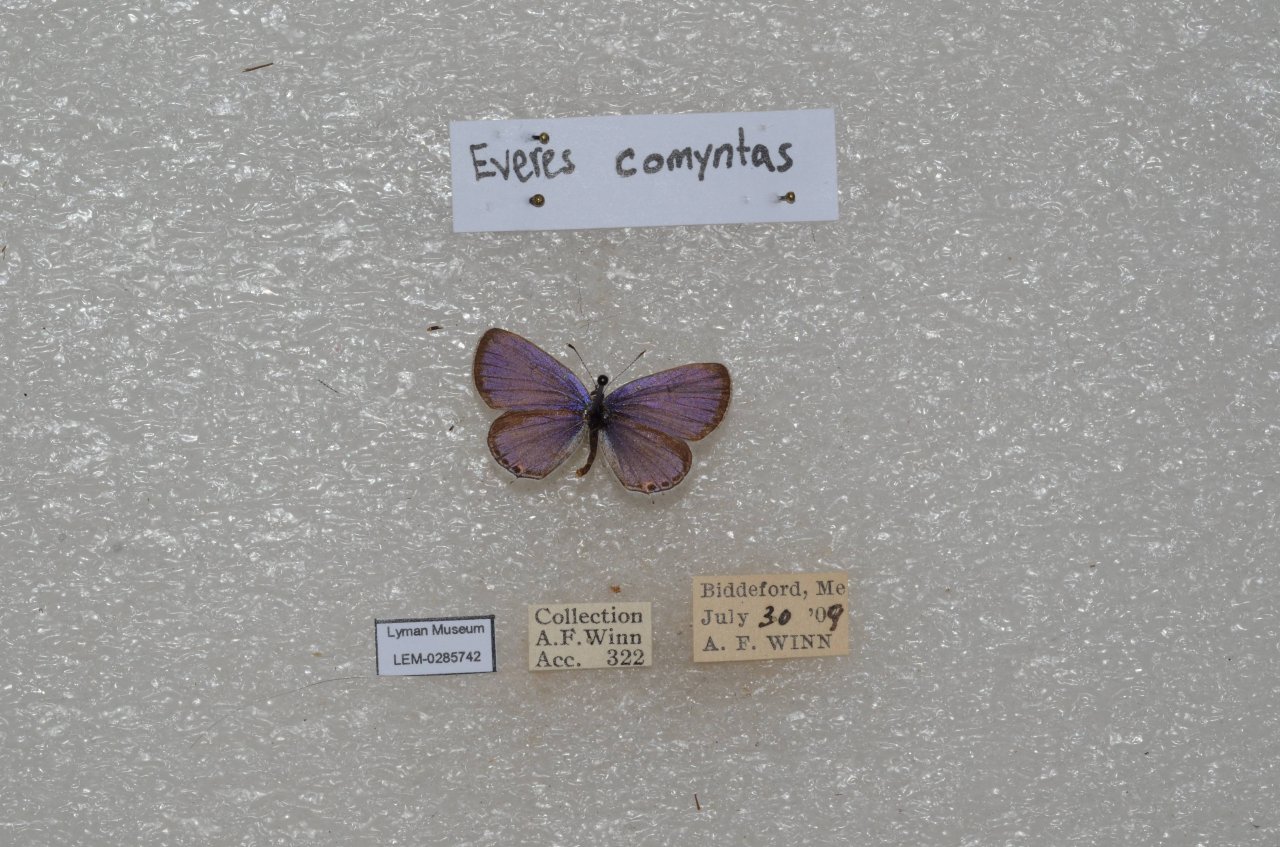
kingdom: Animalia
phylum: Arthropoda
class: Insecta
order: Lepidoptera
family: Lycaenidae
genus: Elkalyce
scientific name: Elkalyce comyntas
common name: Eastern Tailed-Blue
